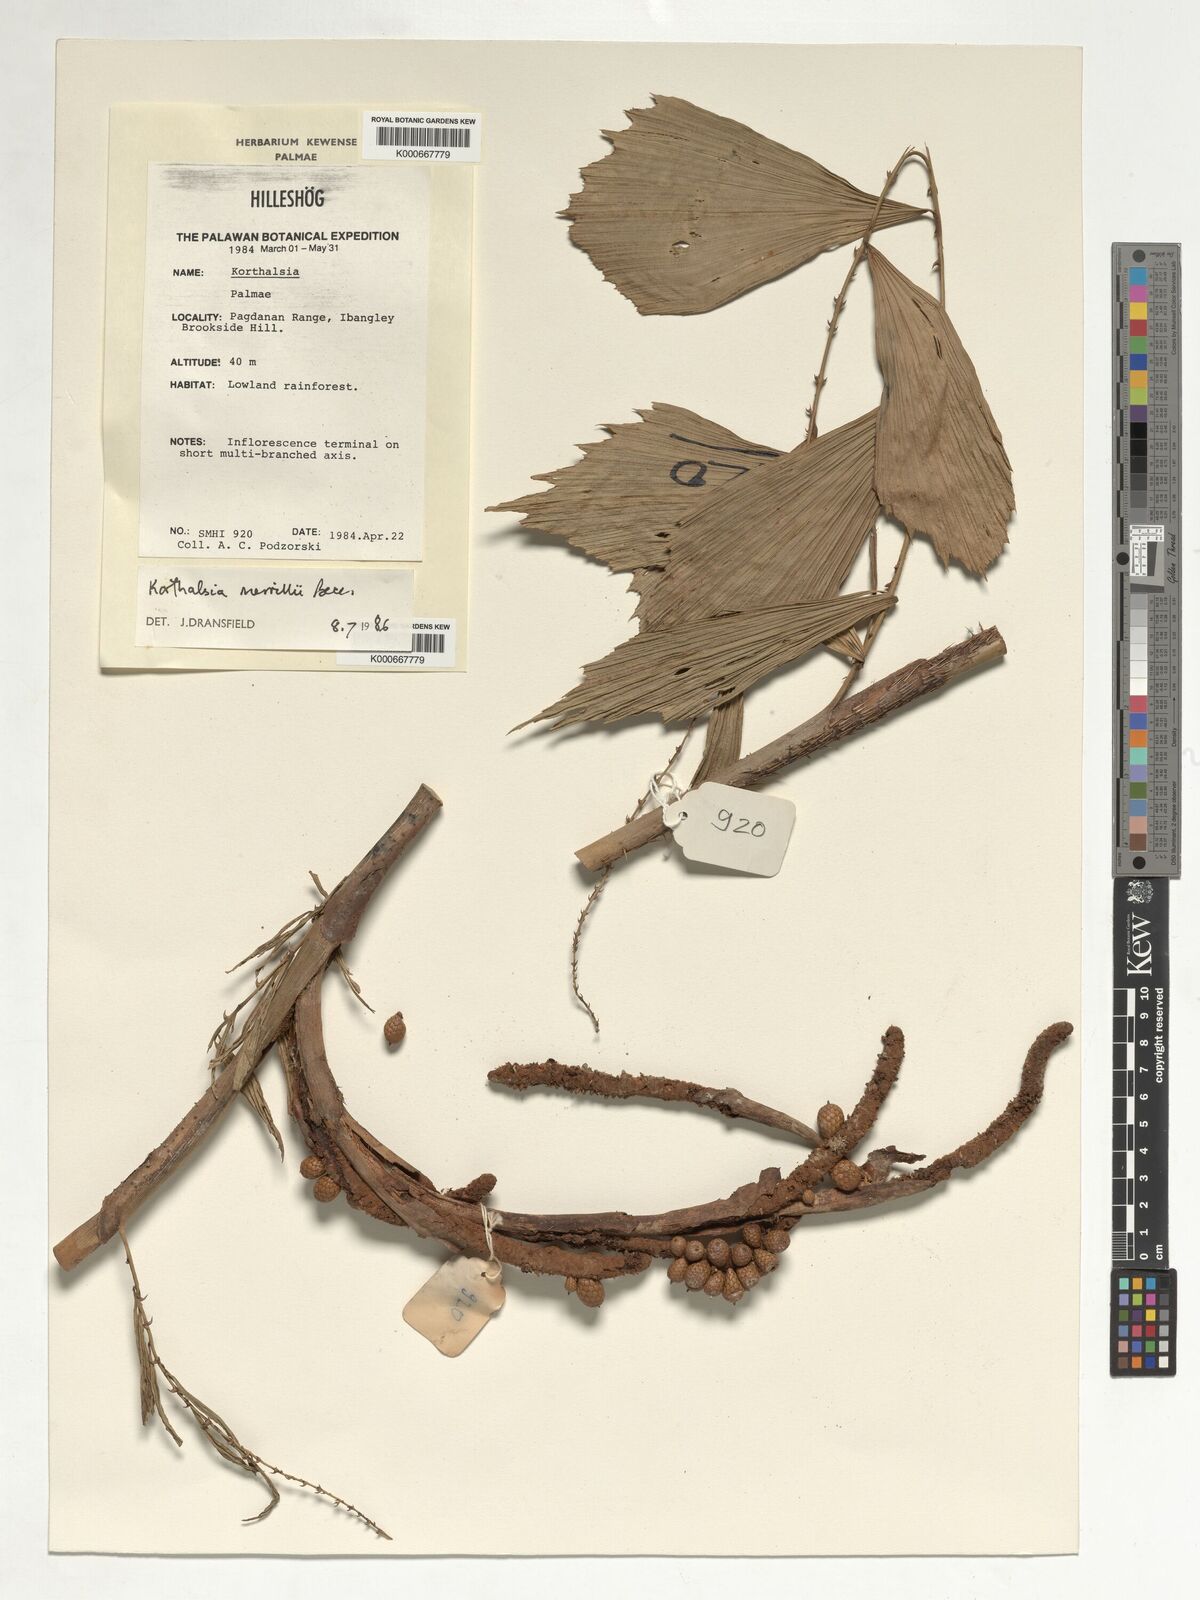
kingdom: Plantae
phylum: Tracheophyta
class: Liliopsida
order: Arecales
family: Arecaceae
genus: Korthalsia
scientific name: Korthalsia merrillii
